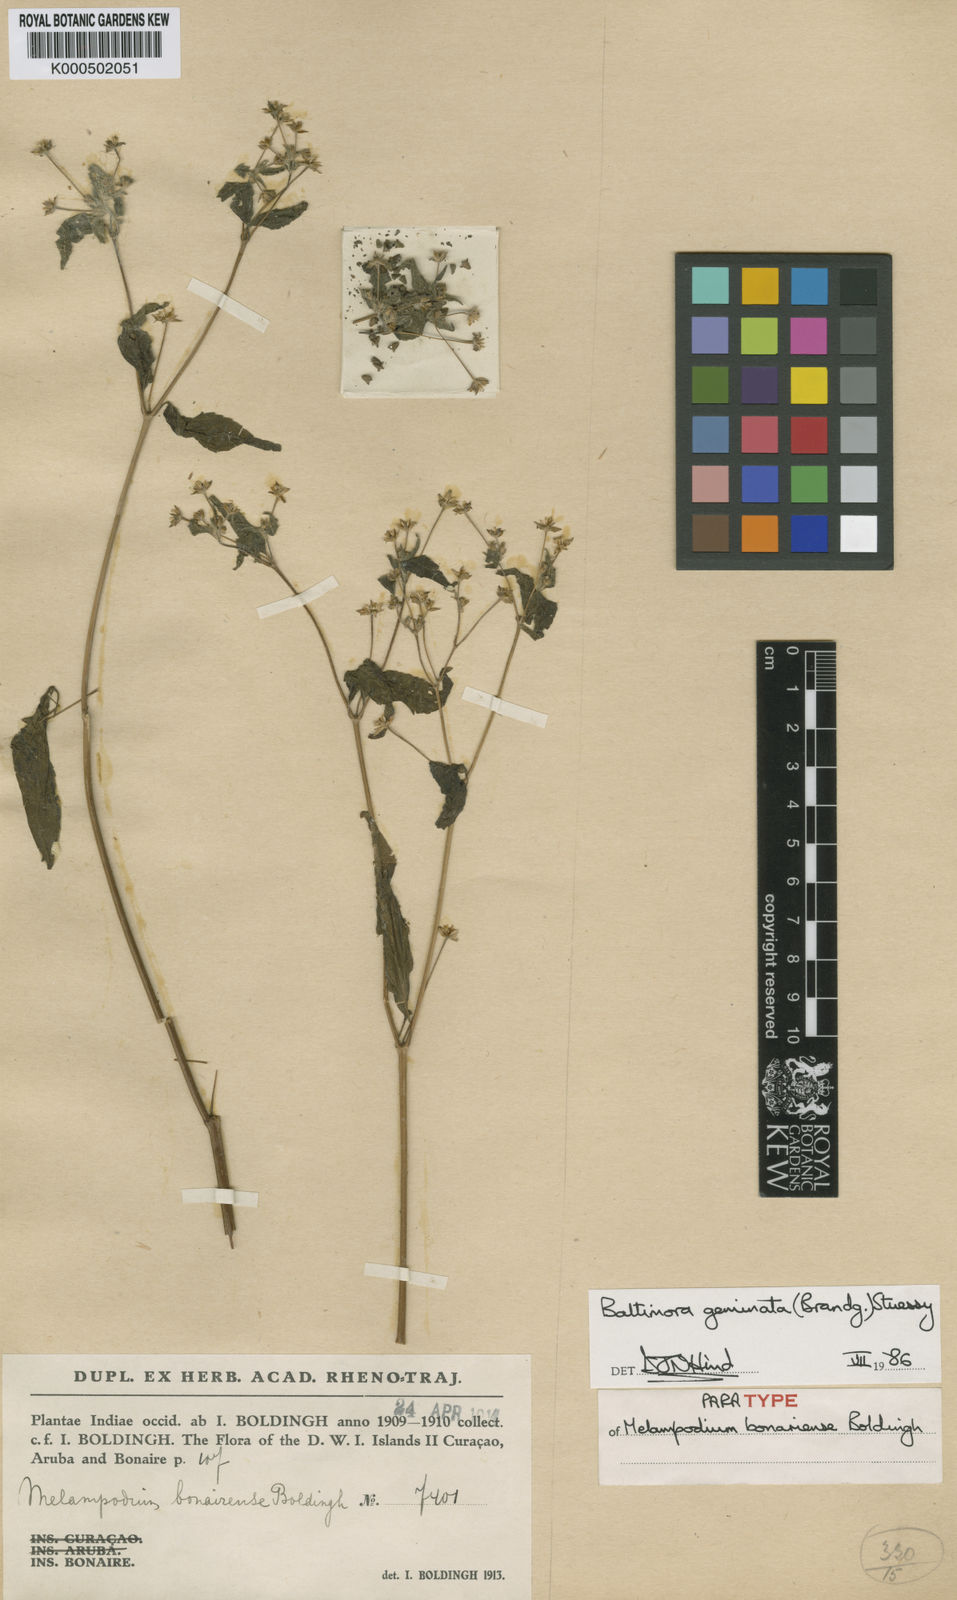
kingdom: Plantae
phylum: Tracheophyta
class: Magnoliopsida
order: Asterales
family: Asteraceae
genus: Baltimora
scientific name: Baltimora geminata
